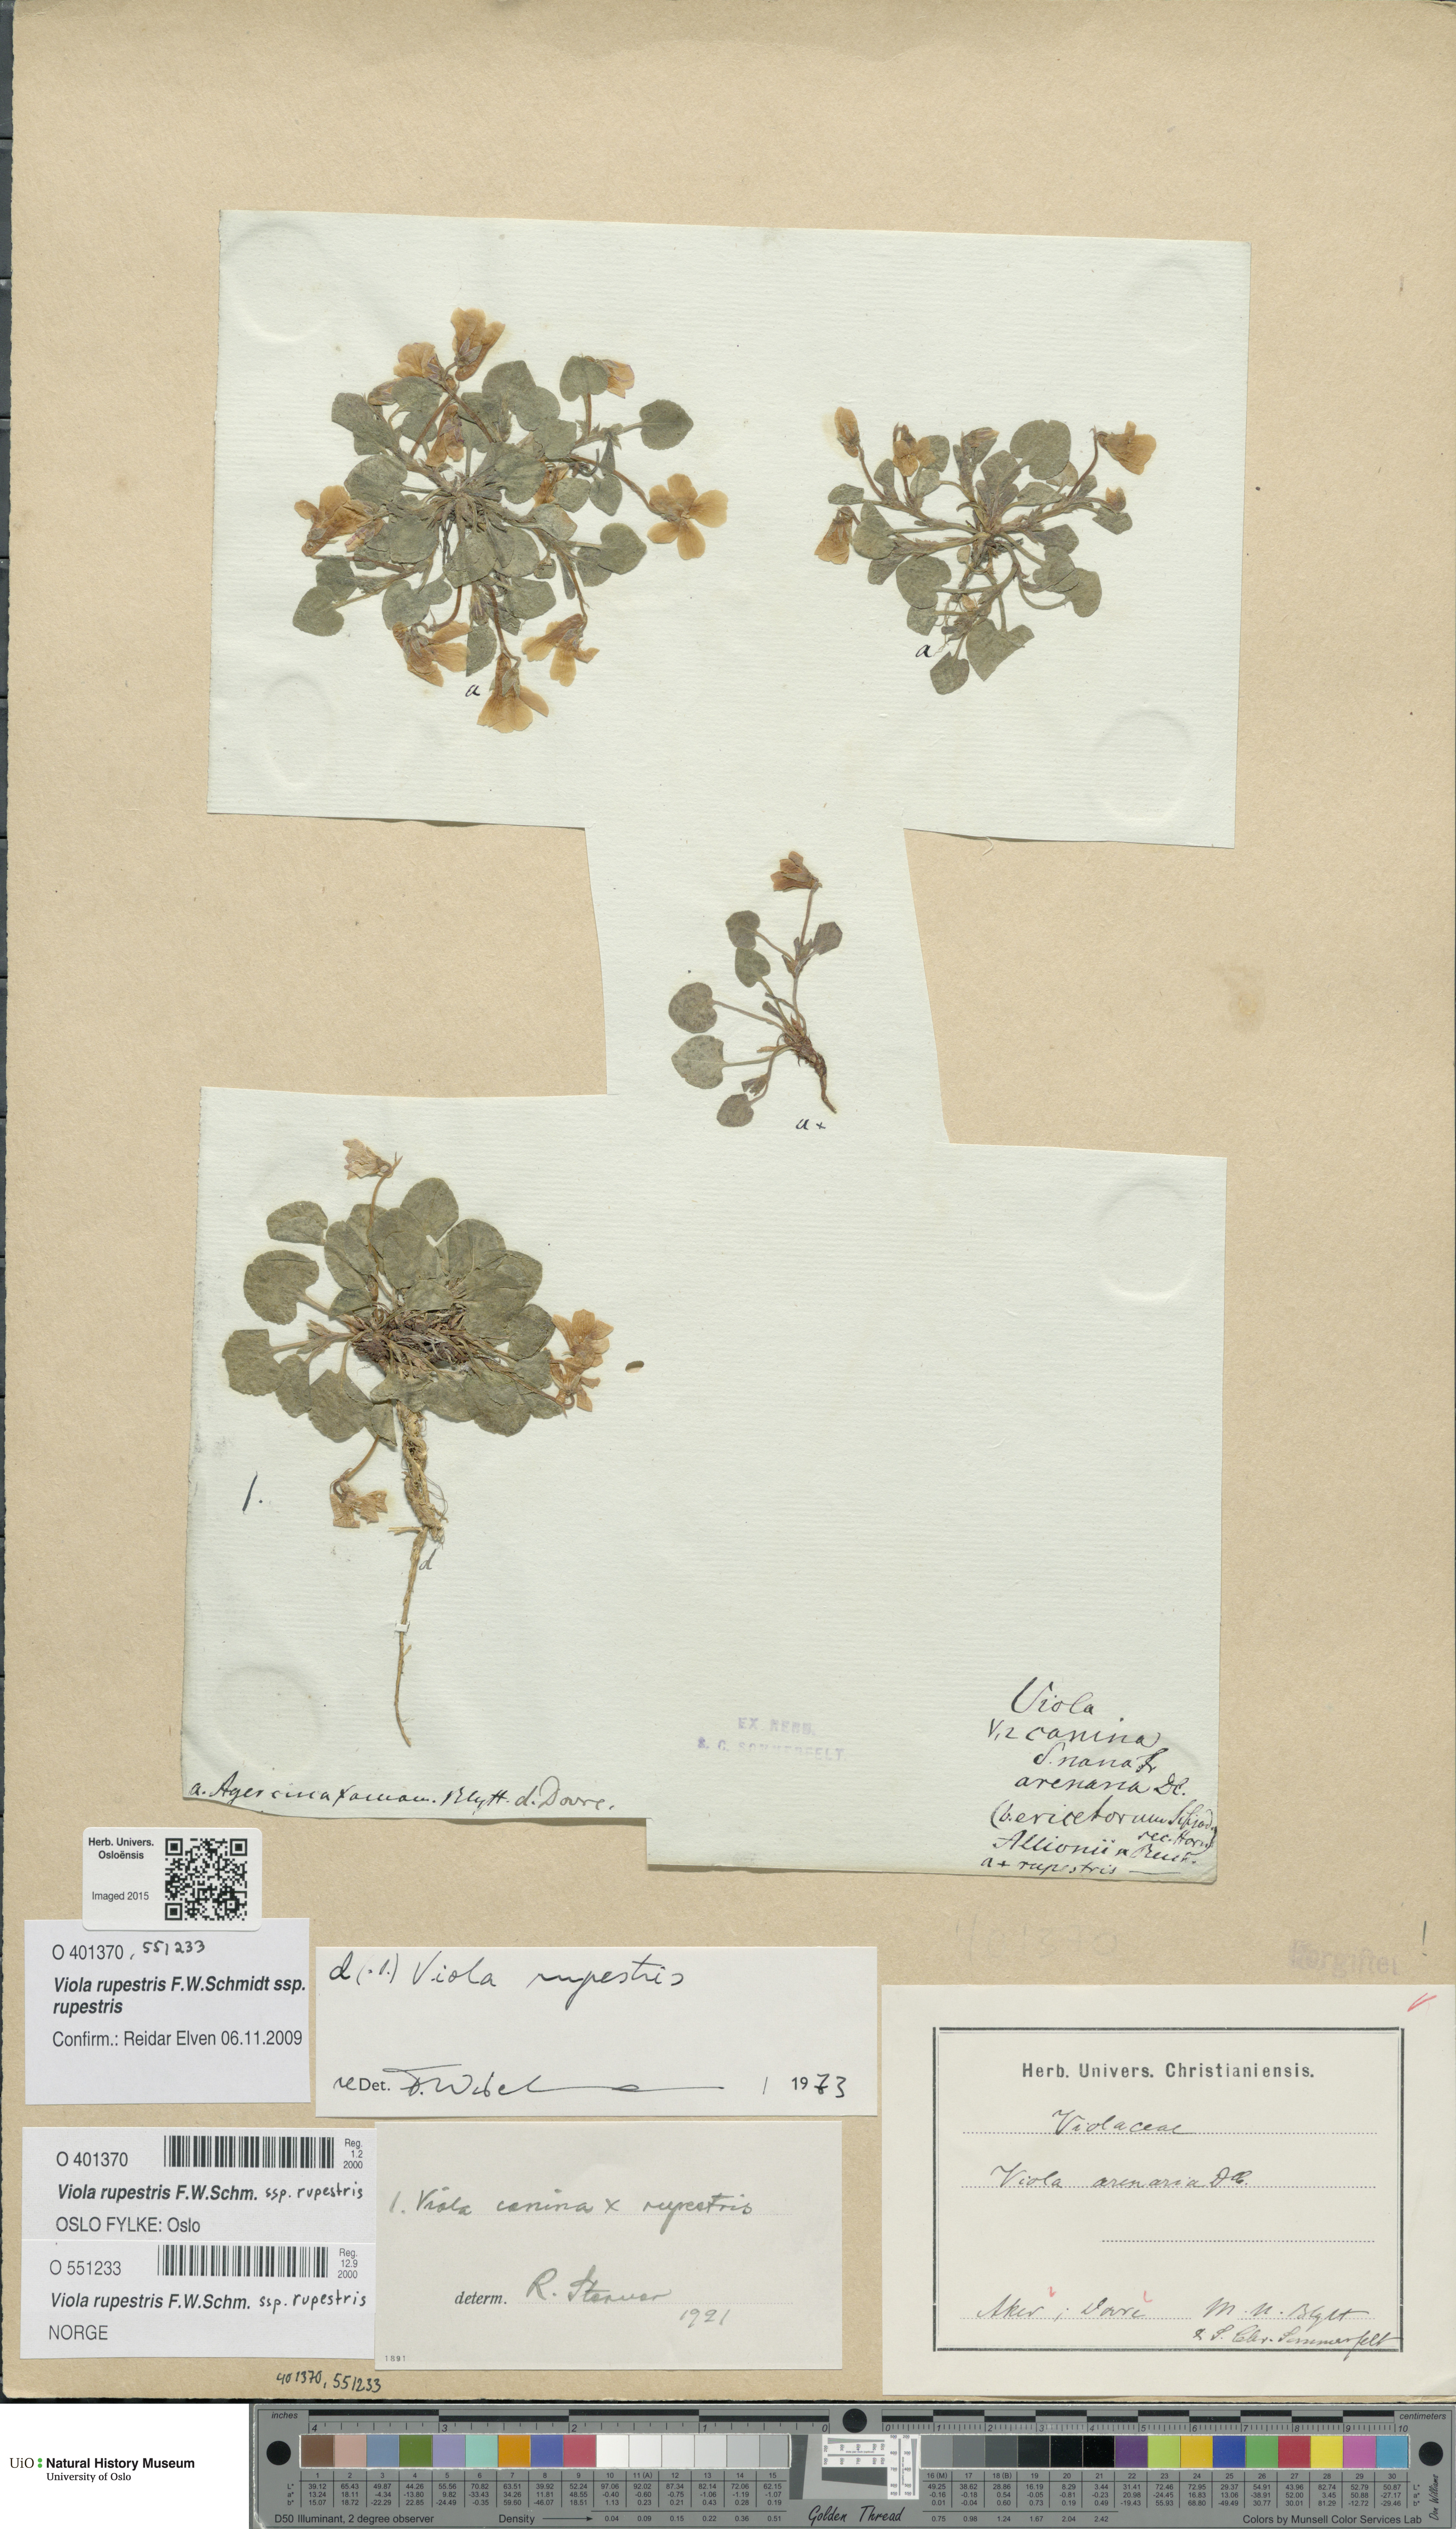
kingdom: Plantae
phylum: Tracheophyta
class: Magnoliopsida
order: Malpighiales
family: Violaceae
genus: Viola
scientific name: Viola rupestris
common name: Teesdale violet
